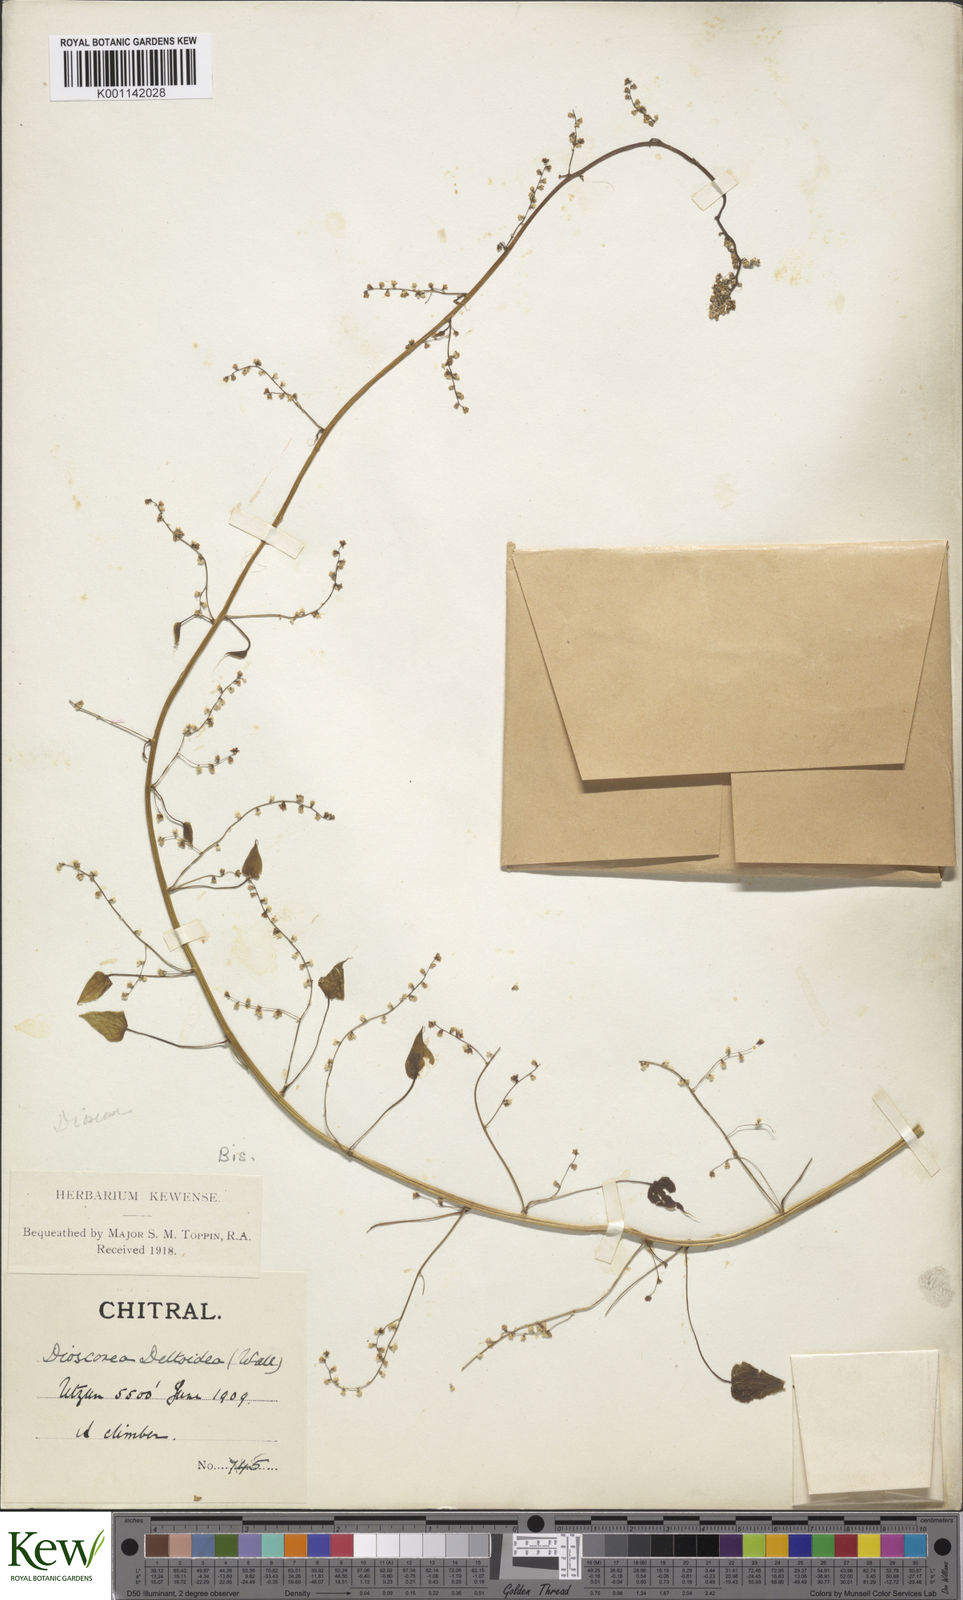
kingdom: Plantae
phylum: Tracheophyta
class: Liliopsida
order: Dioscoreales
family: Dioscoreaceae
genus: Dioscorea
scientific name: Dioscorea deltoidea
